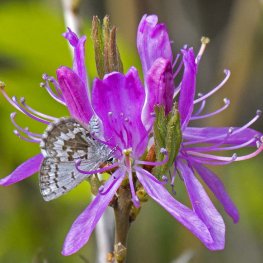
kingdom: Animalia
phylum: Arthropoda
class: Insecta
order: Lepidoptera
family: Lycaenidae
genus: Celastrina
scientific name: Celastrina lucia
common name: Northern Spring Azure
